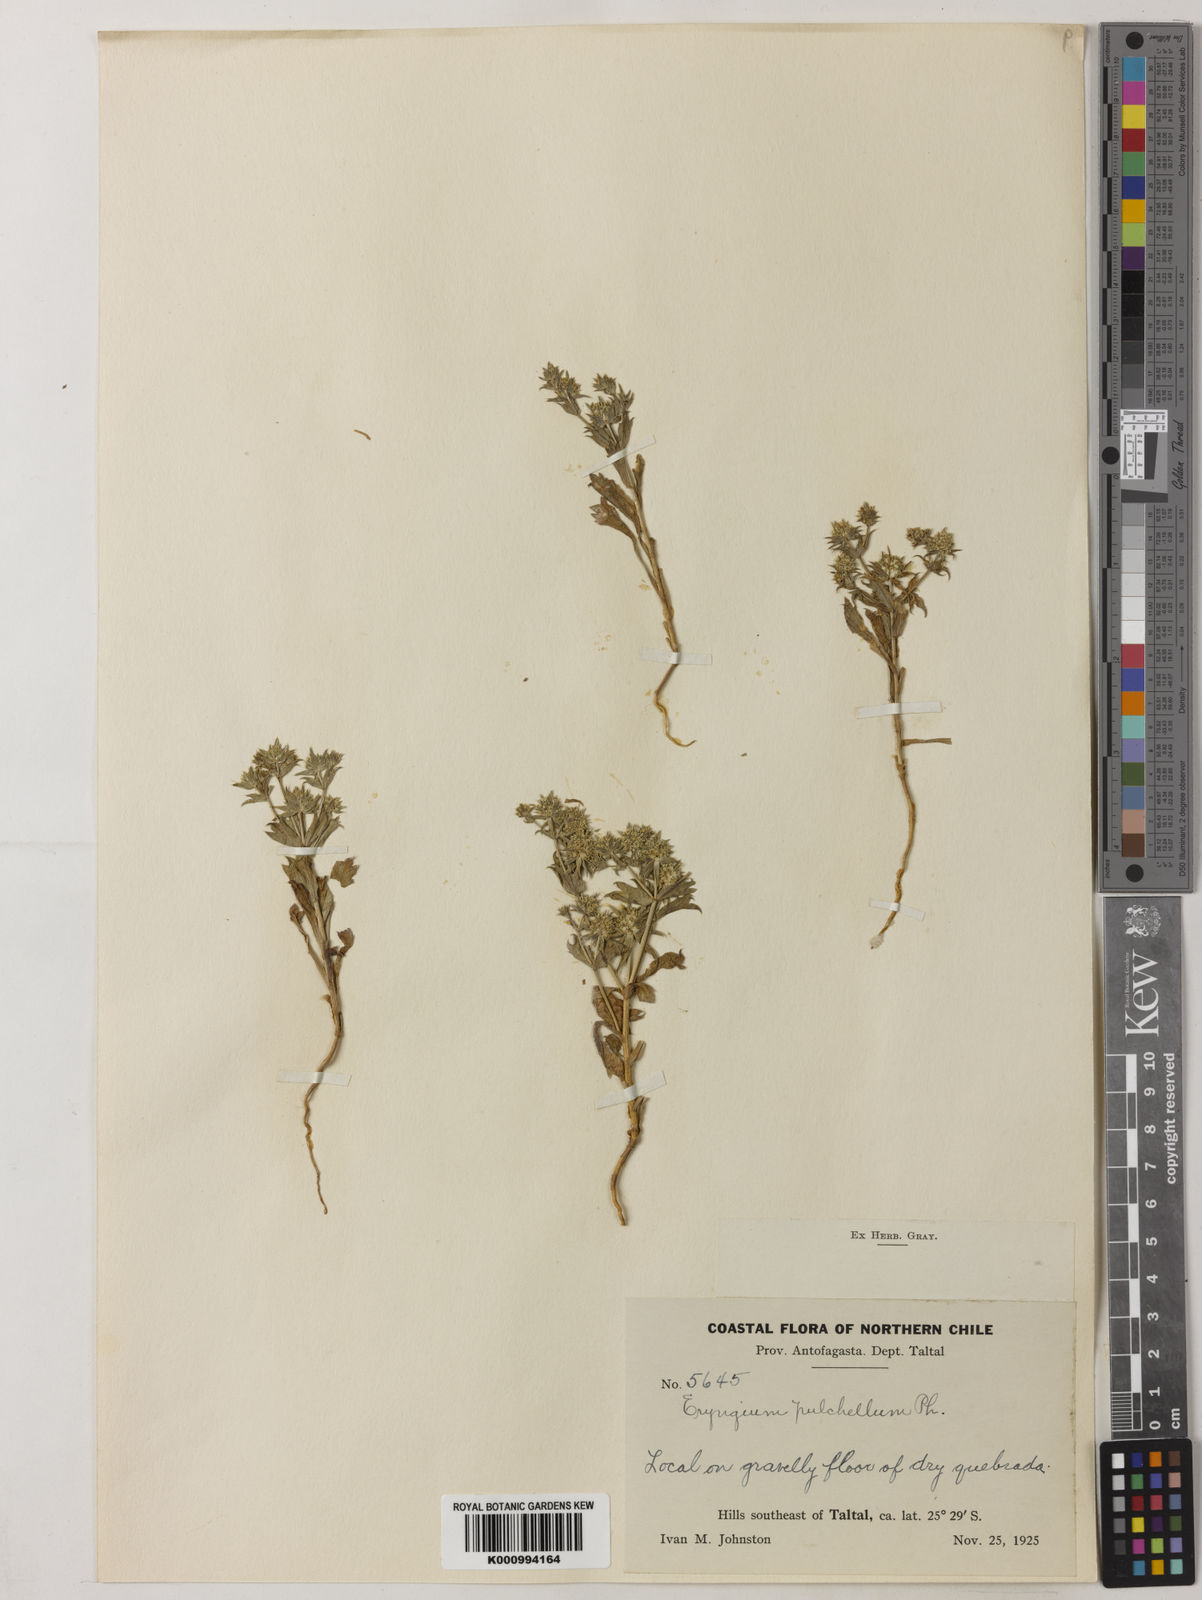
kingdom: Plantae
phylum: Tracheophyta
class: Magnoliopsida
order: Apiales
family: Apiaceae
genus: Eryngium
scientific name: Eryngium pulchellum
